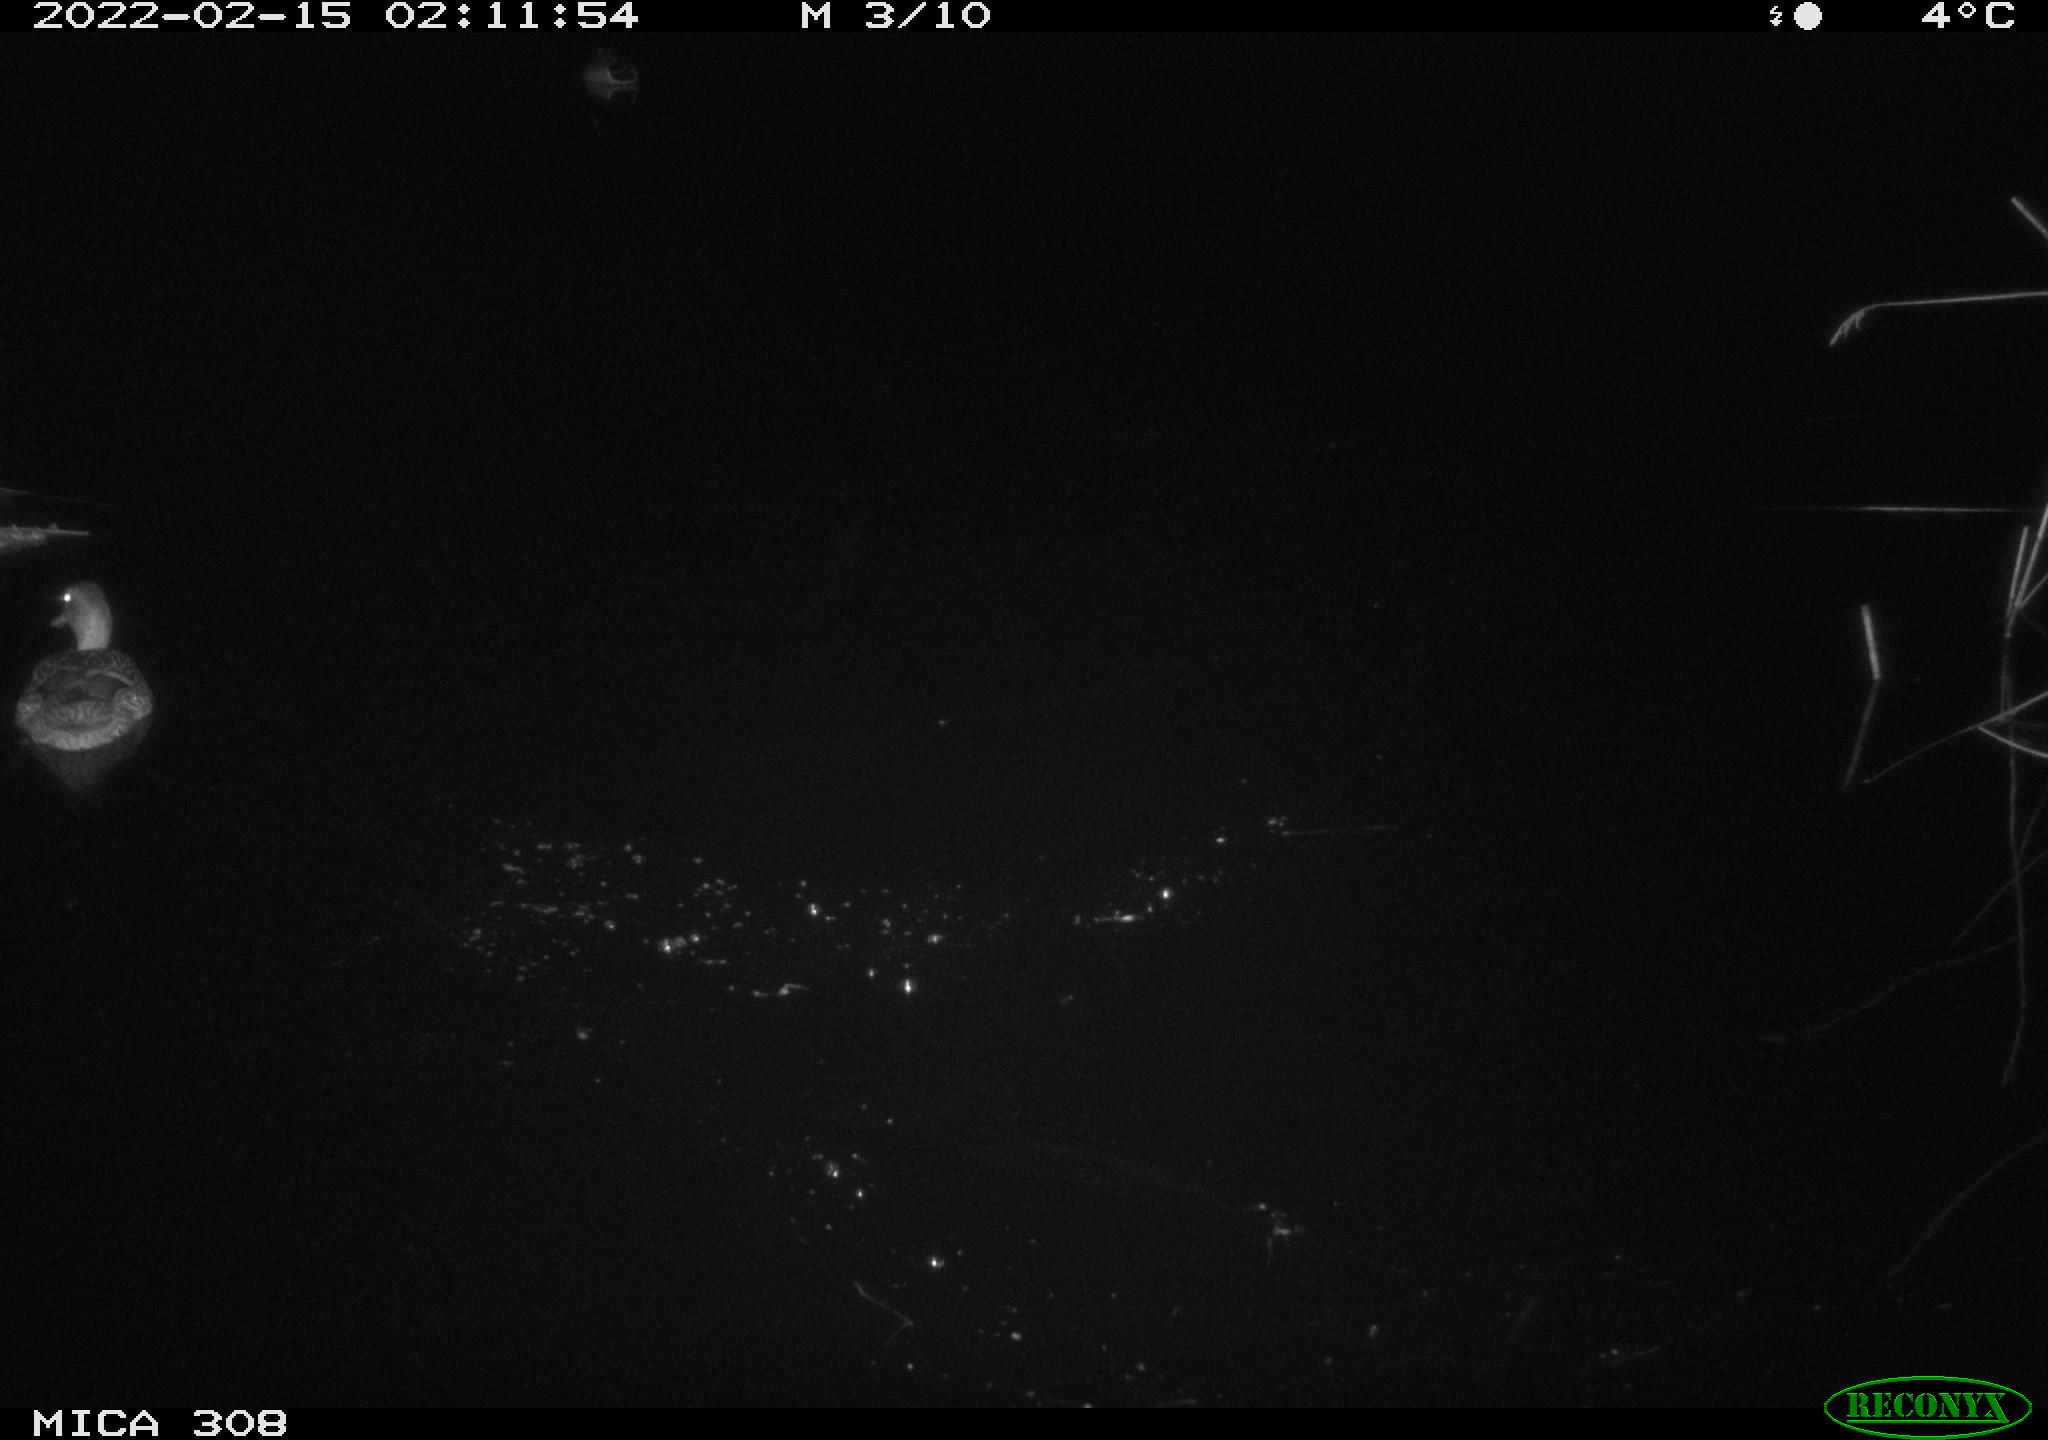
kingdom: Animalia
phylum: Chordata
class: Aves
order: Anseriformes
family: Anatidae
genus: Anas
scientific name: Anas platyrhynchos
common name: Mallard
